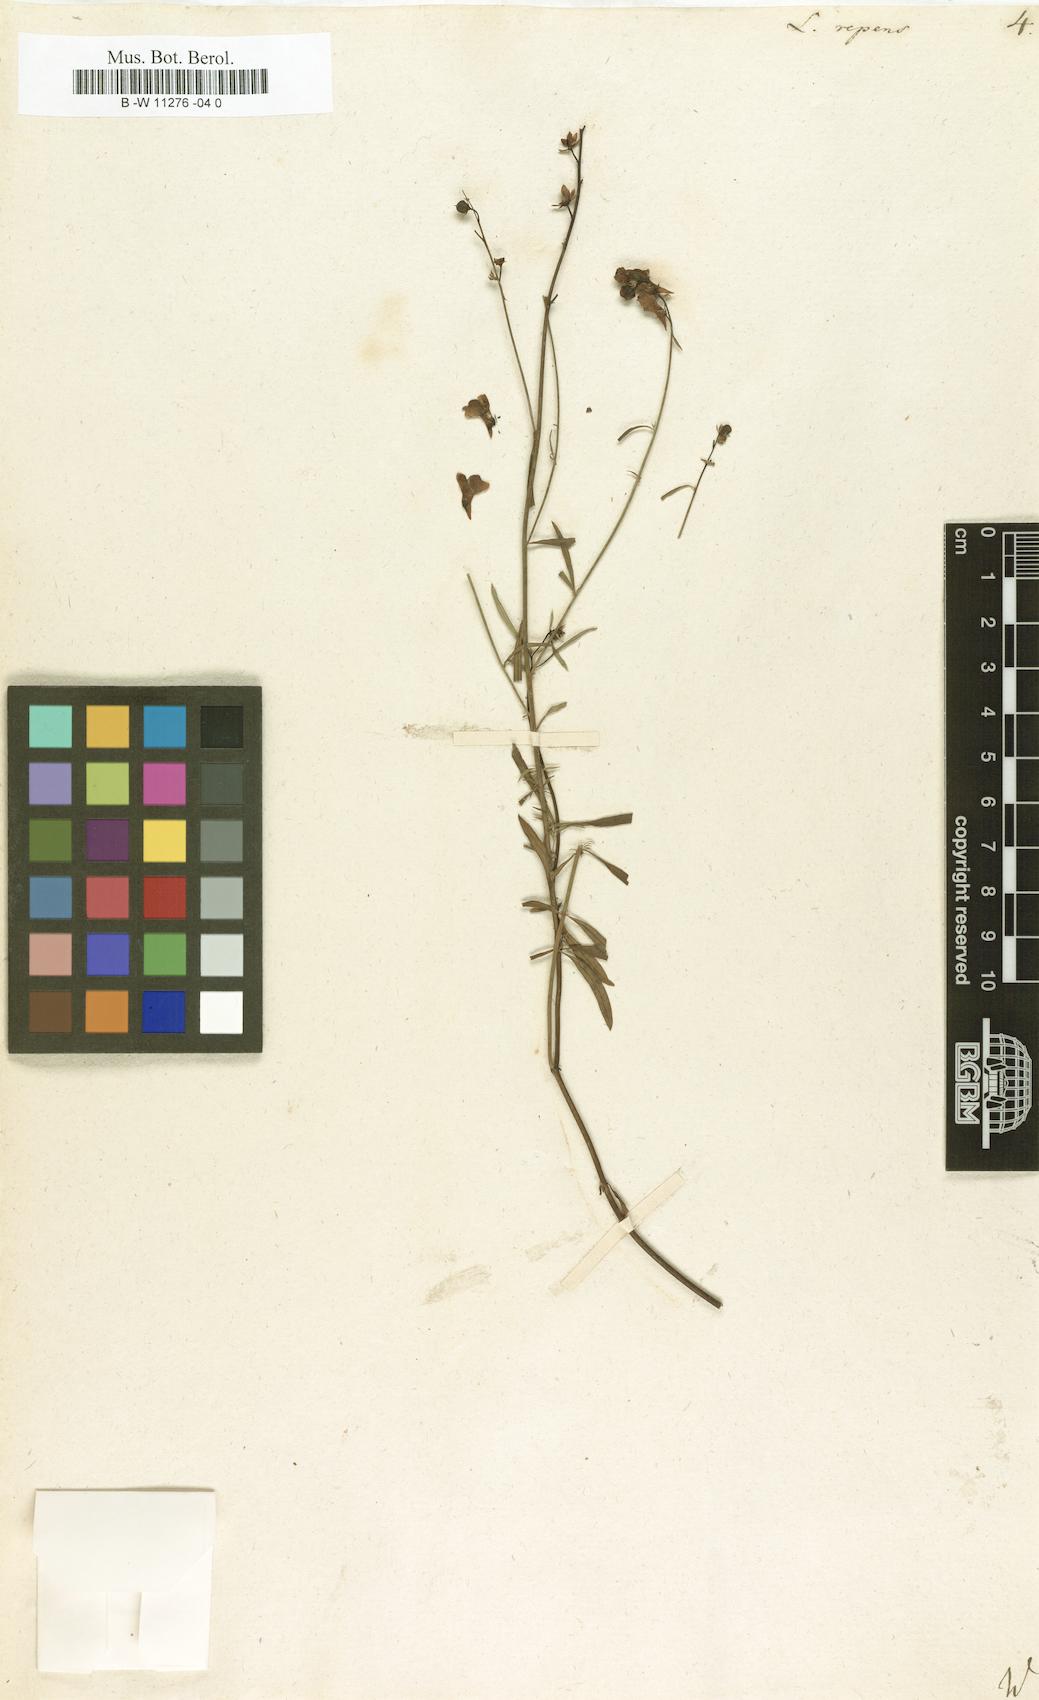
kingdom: Plantae
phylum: Tracheophyta
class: Magnoliopsida
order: Lamiales
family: Plantaginaceae
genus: Linaria
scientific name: Linaria repens
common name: Pale toadflax
